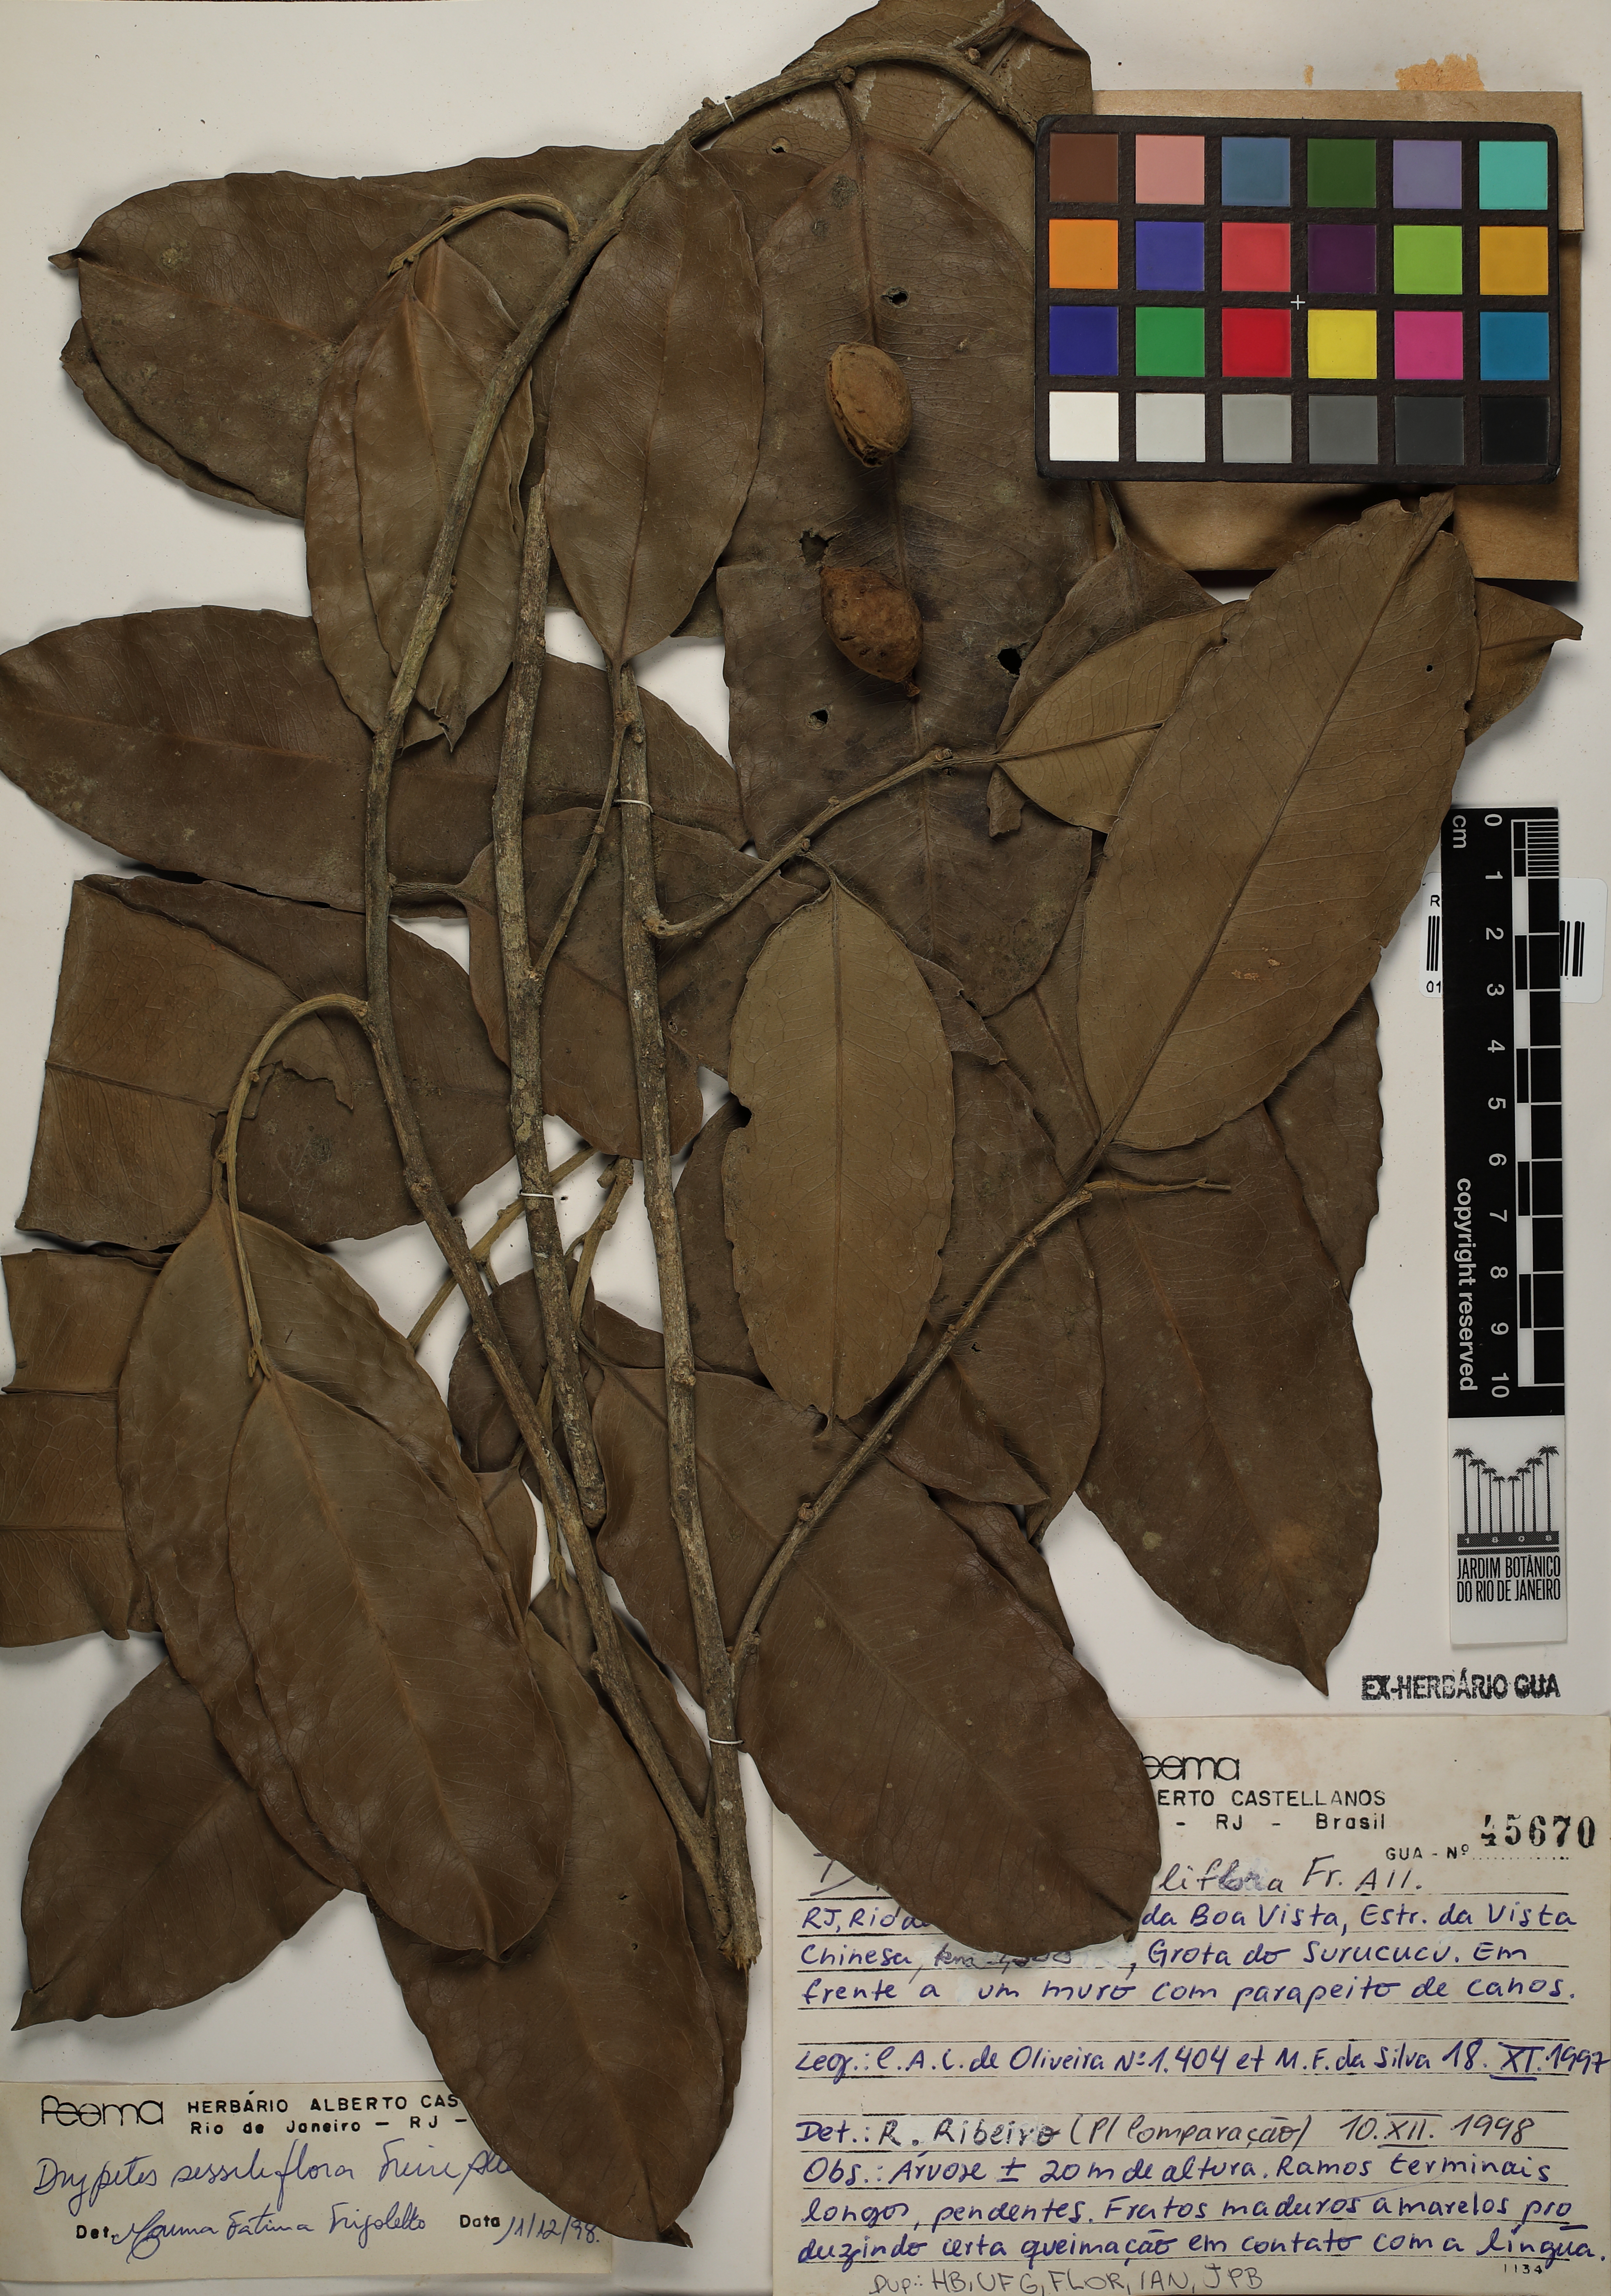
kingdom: Plantae
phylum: Tracheophyta
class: Magnoliopsida
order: Malpighiales
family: Putranjivaceae
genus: Drypetes
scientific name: Drypetes sessiliflora
